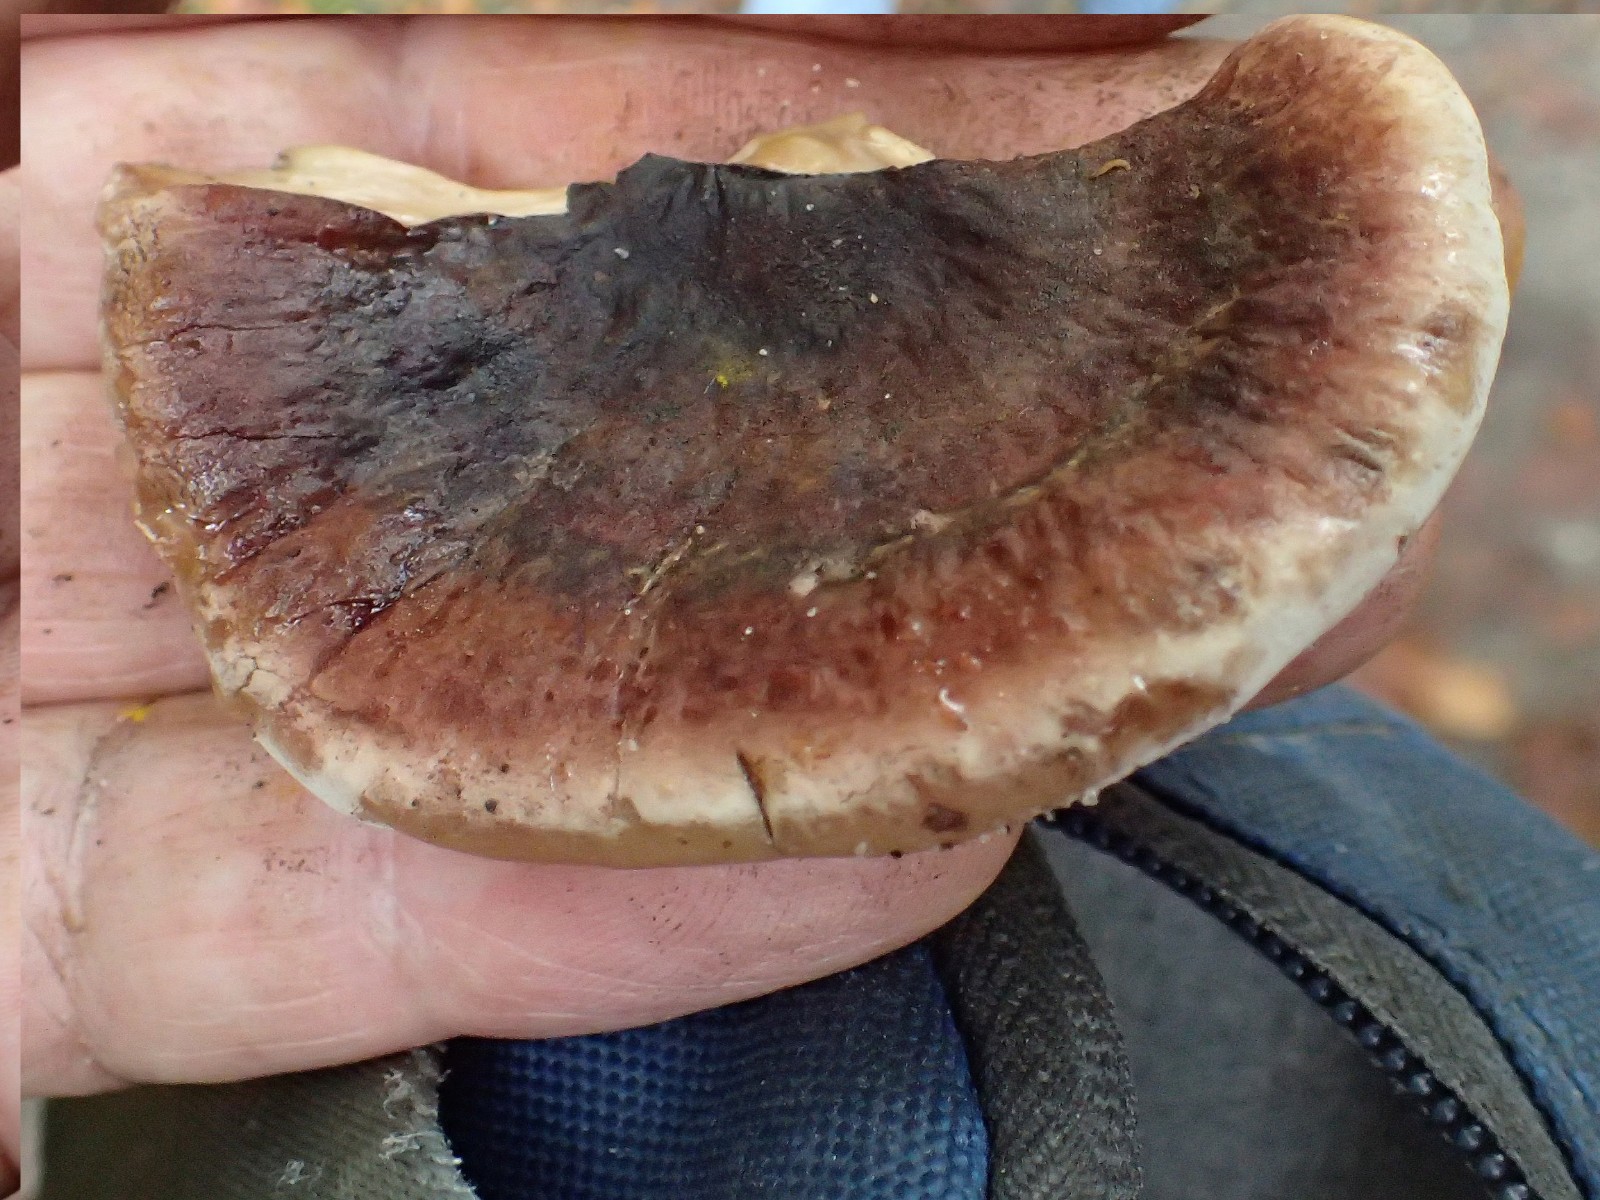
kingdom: Fungi
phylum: Basidiomycota
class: Agaricomycetes
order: Polyporales
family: Ischnodermataceae
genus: Ischnoderma
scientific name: Ischnoderma resinosum
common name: løv-tjæreporesvamp
